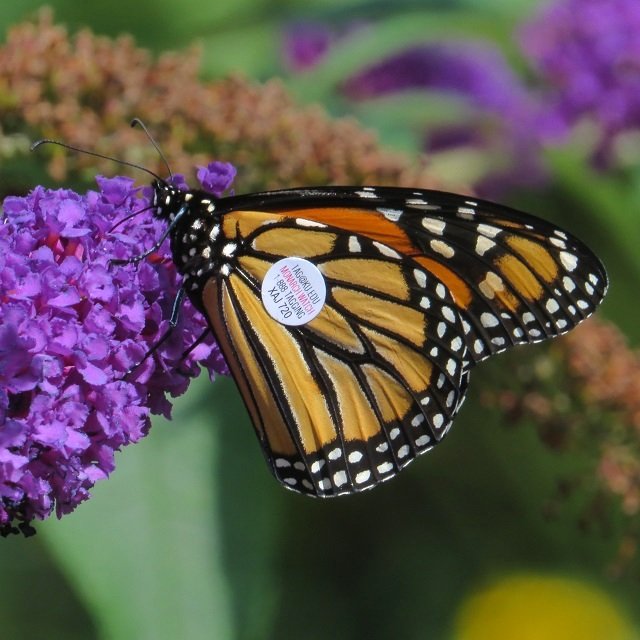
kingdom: Animalia
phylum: Arthropoda
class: Insecta
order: Lepidoptera
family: Nymphalidae
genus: Danaus
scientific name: Danaus plexippus
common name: Monarch
